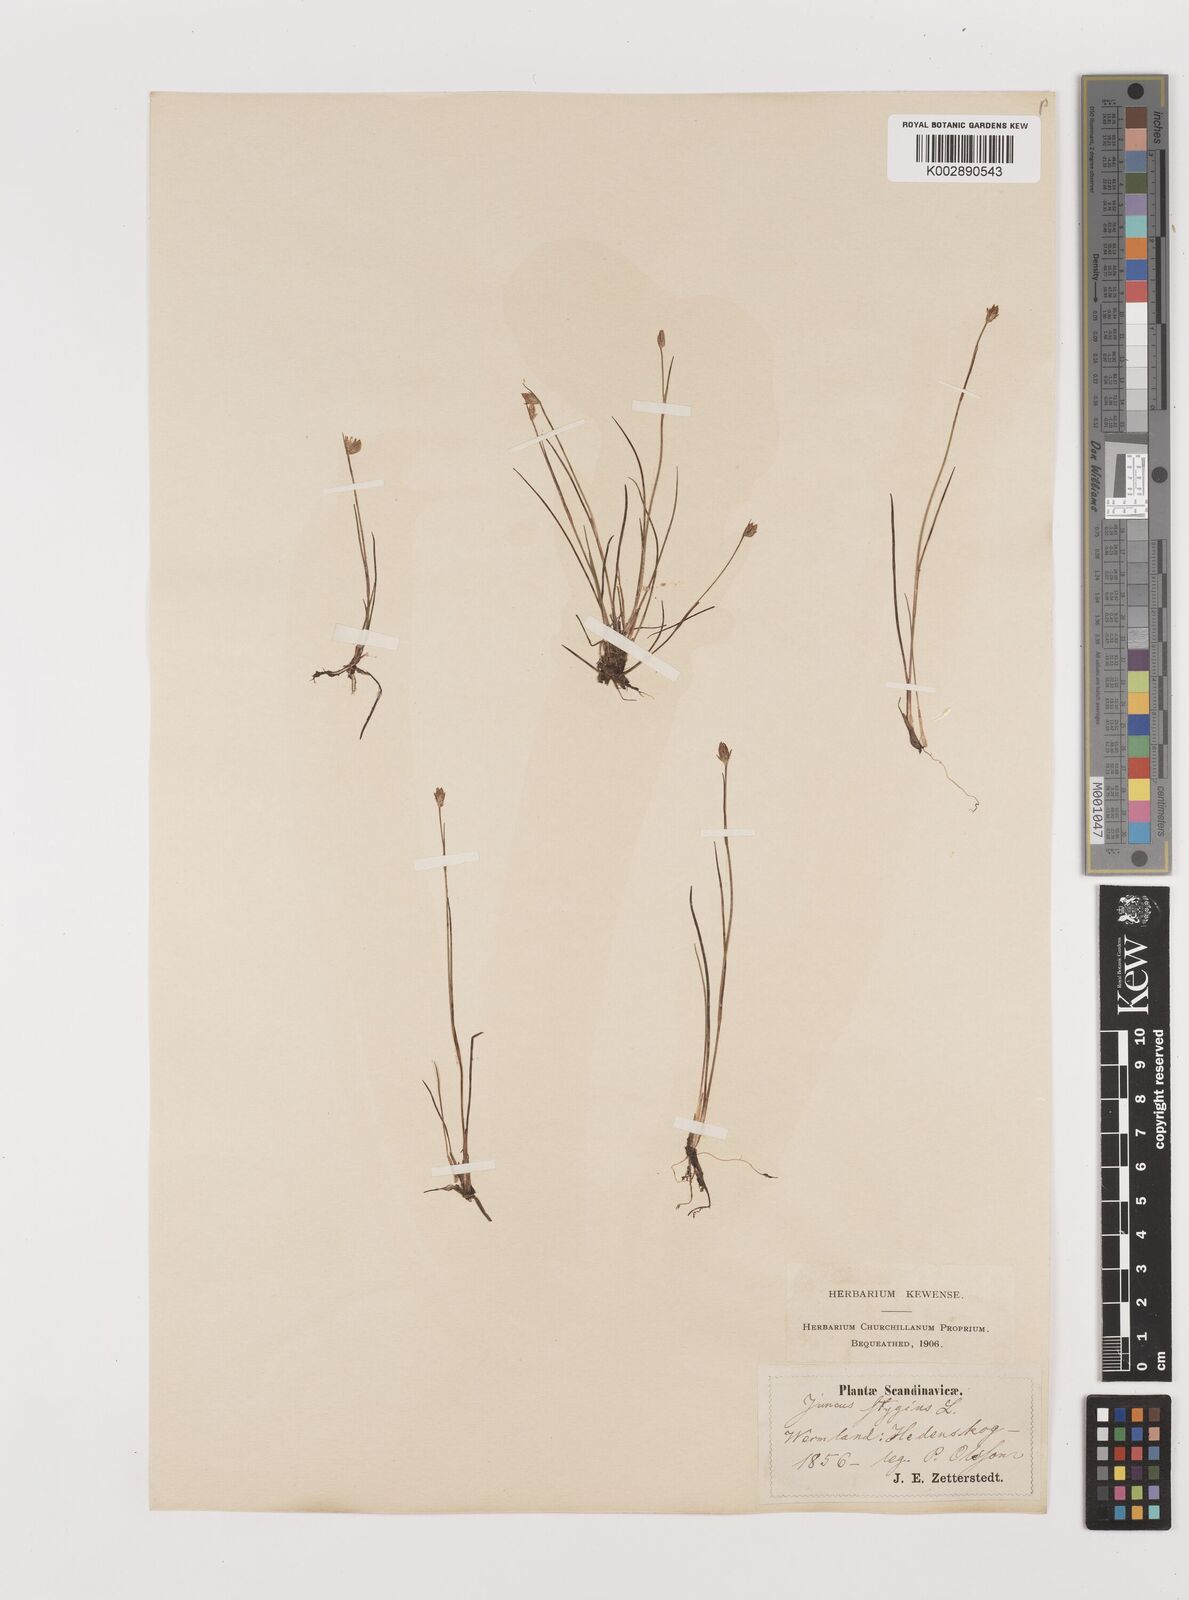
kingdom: Plantae
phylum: Tracheophyta
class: Liliopsida
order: Poales
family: Juncaceae
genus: Juncus
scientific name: Juncus stygius
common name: Bog rush
